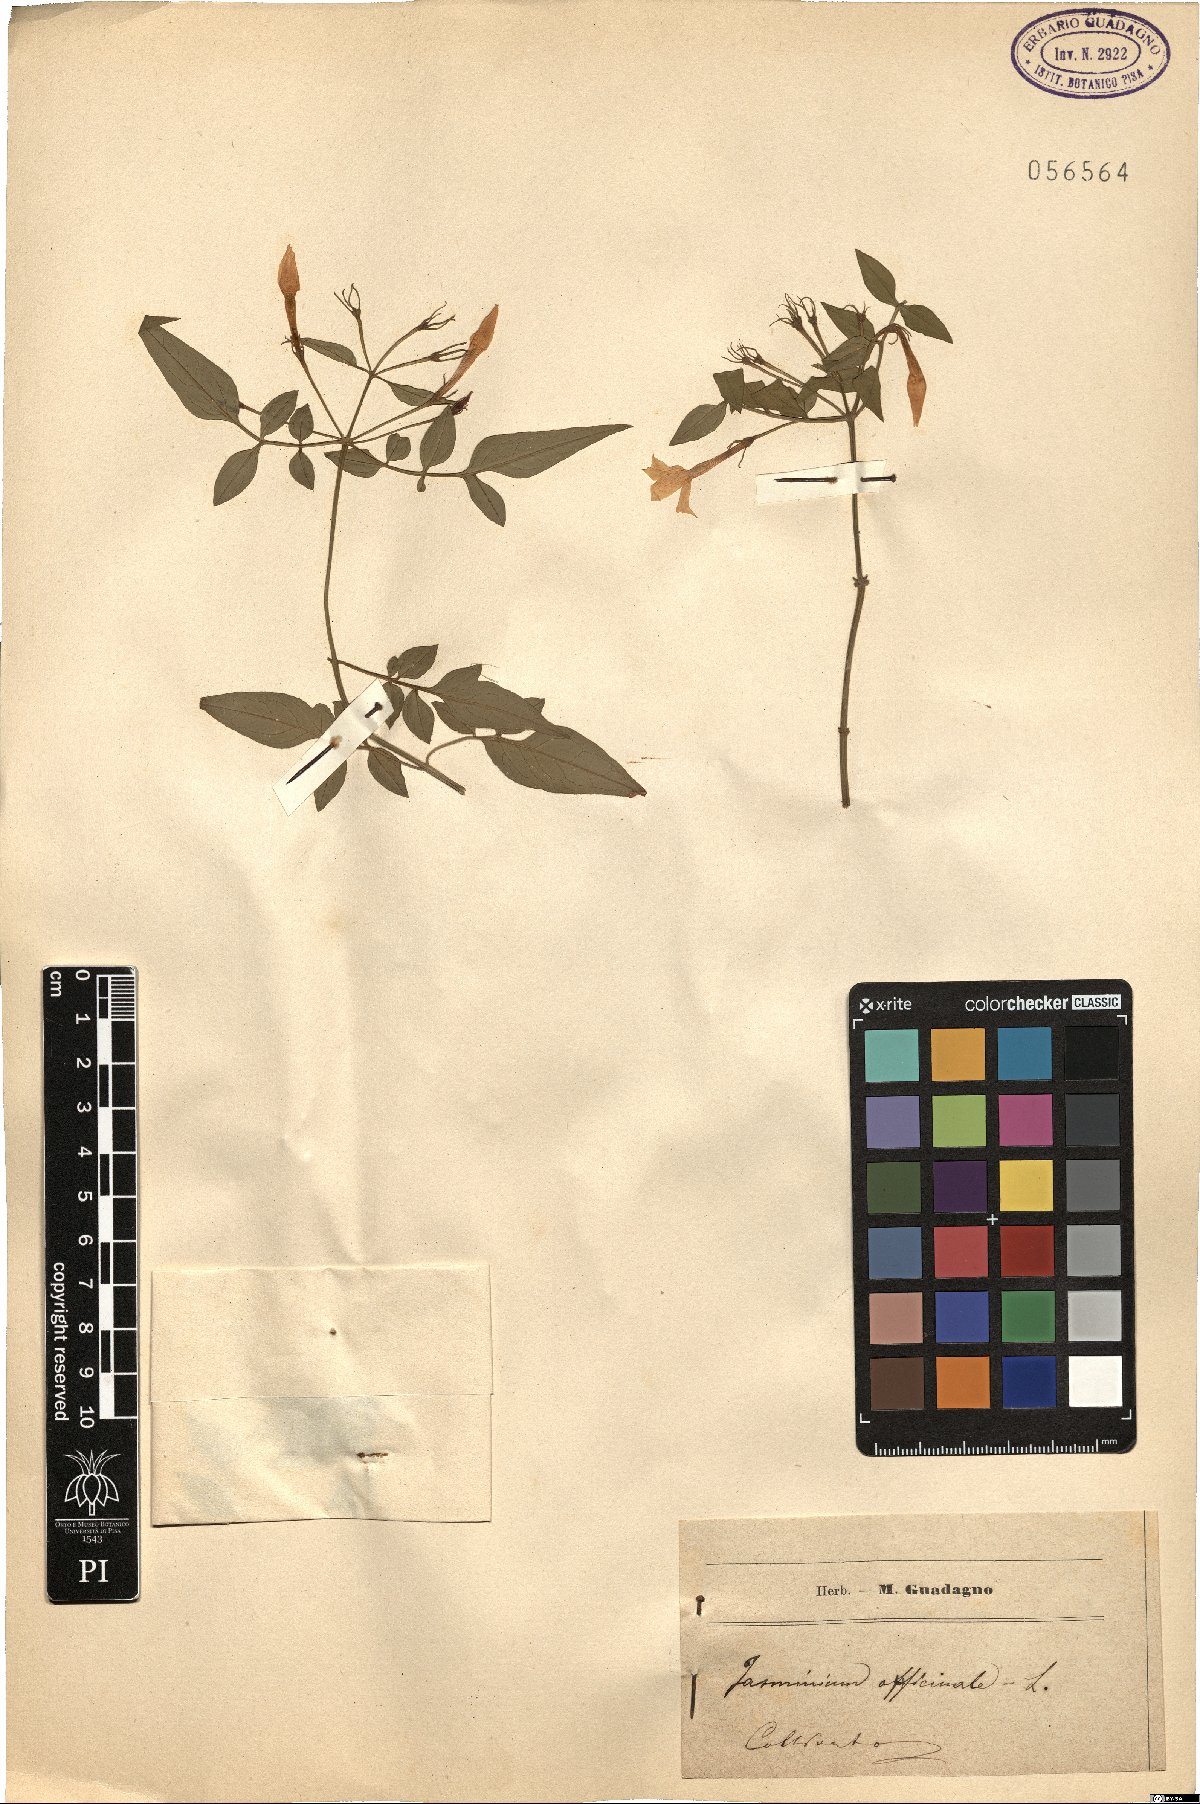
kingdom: Plantae
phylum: Tracheophyta
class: Magnoliopsida
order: Lamiales
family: Oleaceae
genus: Jasminum
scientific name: Jasminum officinale
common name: Summer jasmine
